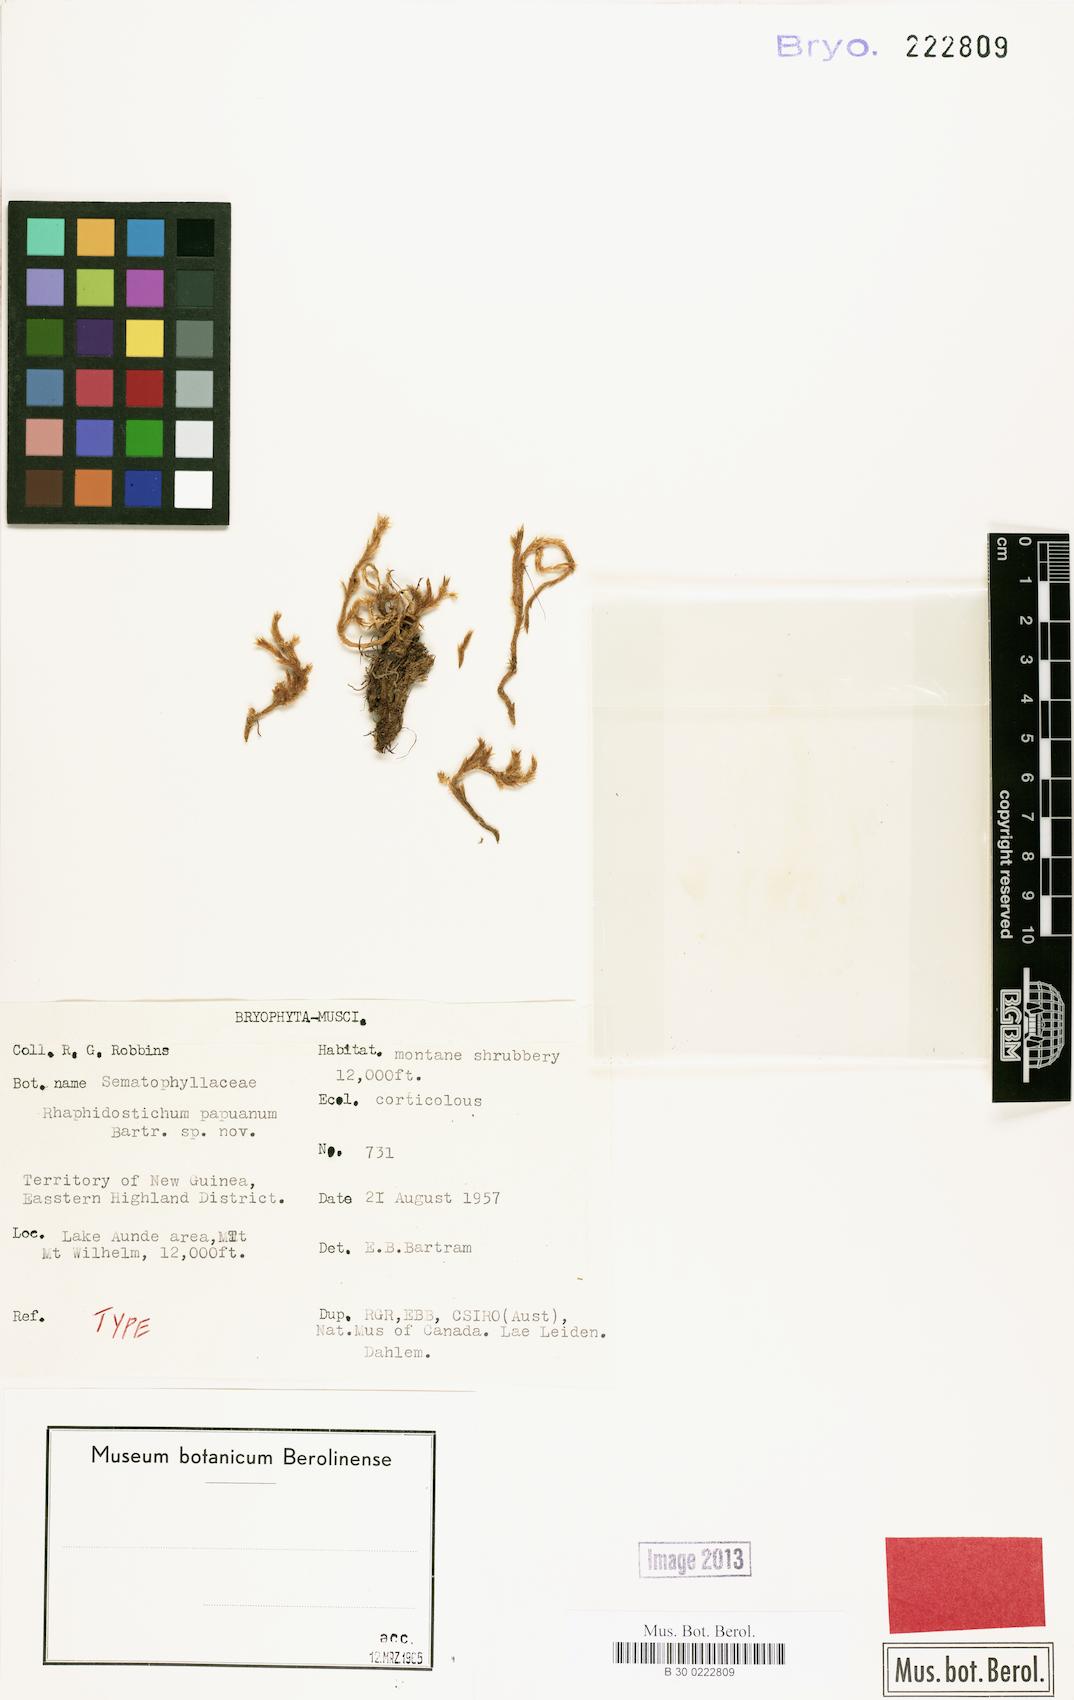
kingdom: Plantae
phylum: Bryophyta
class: Bryopsida
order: Hypnales
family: Sematophyllaceae
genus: Rhaphidostichum
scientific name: Rhaphidostichum loriforme
